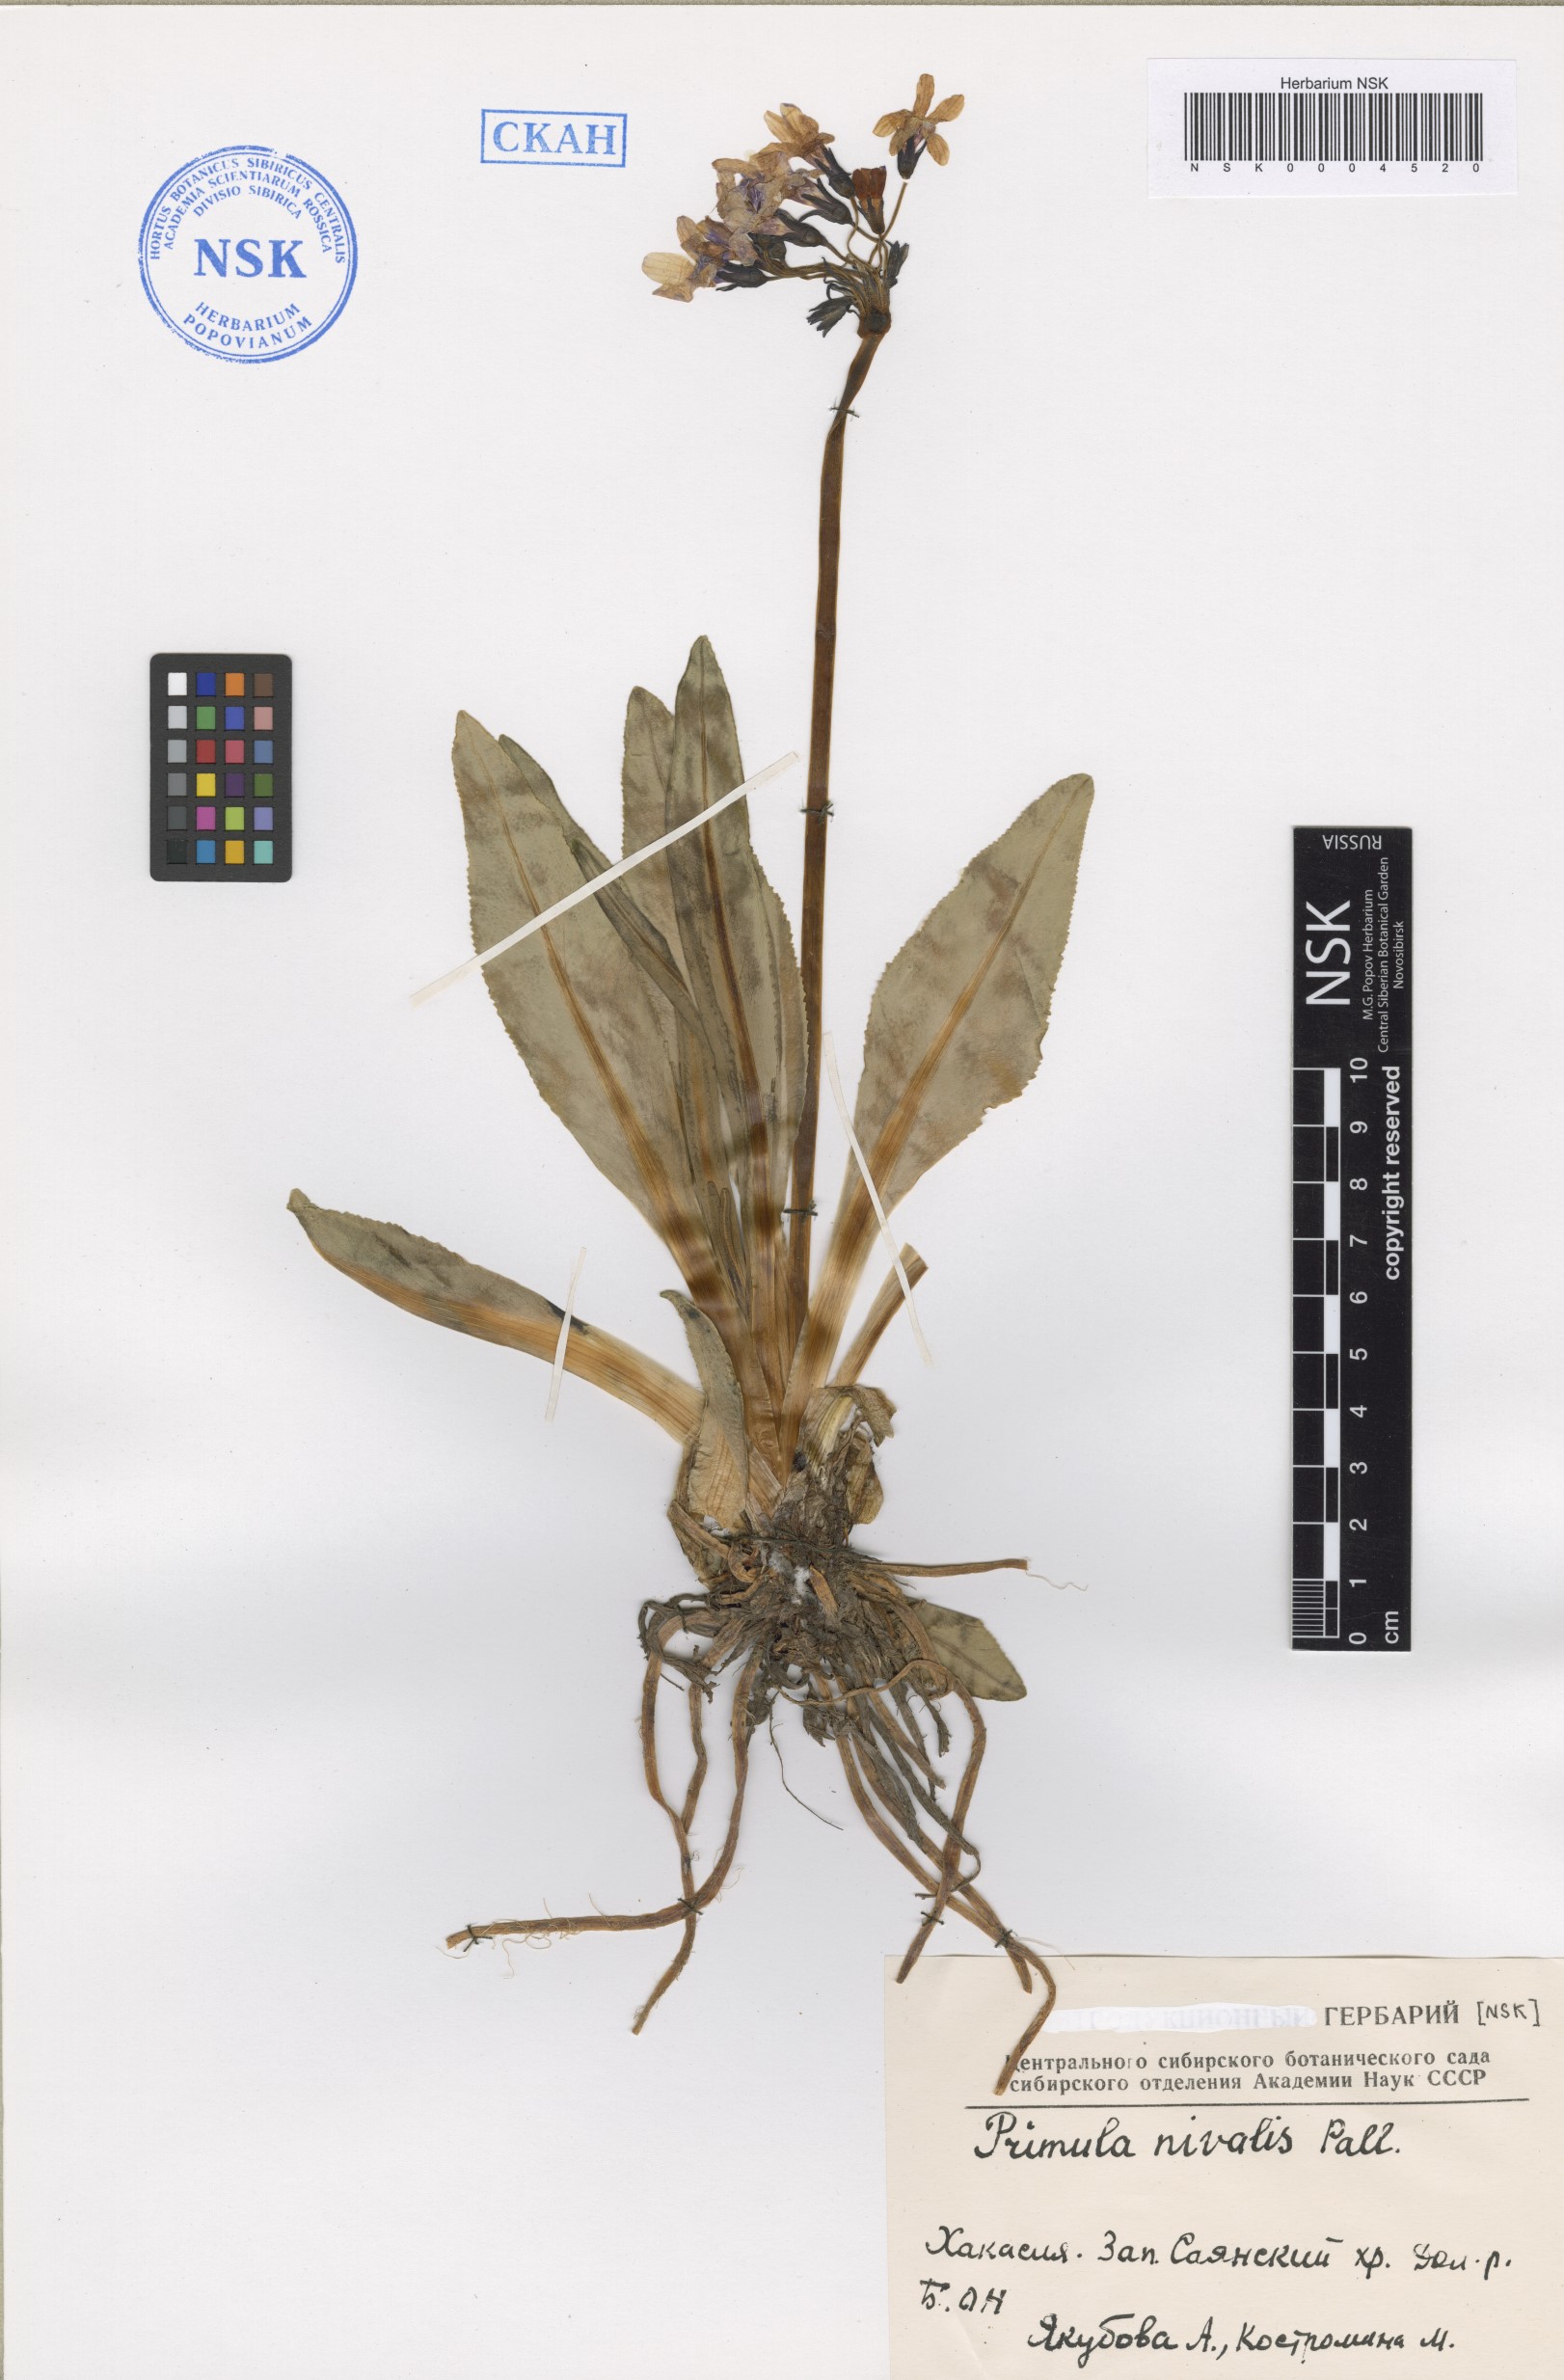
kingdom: Plantae
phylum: Tracheophyta
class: Magnoliopsida
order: Ericales
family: Primulaceae
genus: Primula
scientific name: Primula nivalis
